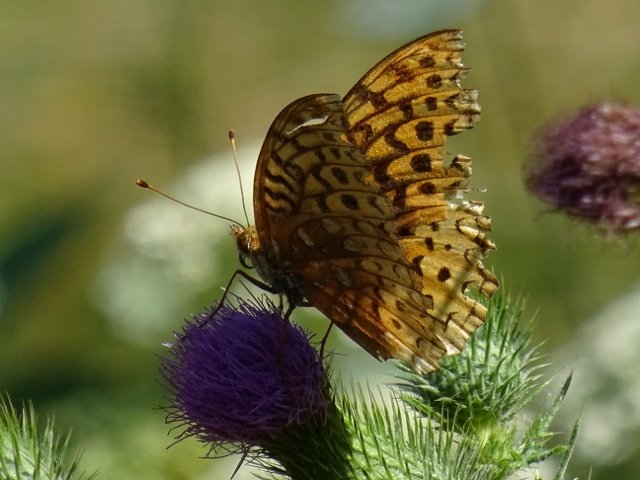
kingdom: Animalia
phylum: Arthropoda
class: Insecta
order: Lepidoptera
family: Nymphalidae
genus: Speyeria
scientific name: Speyeria cybele
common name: Great Spangled Fritillary
